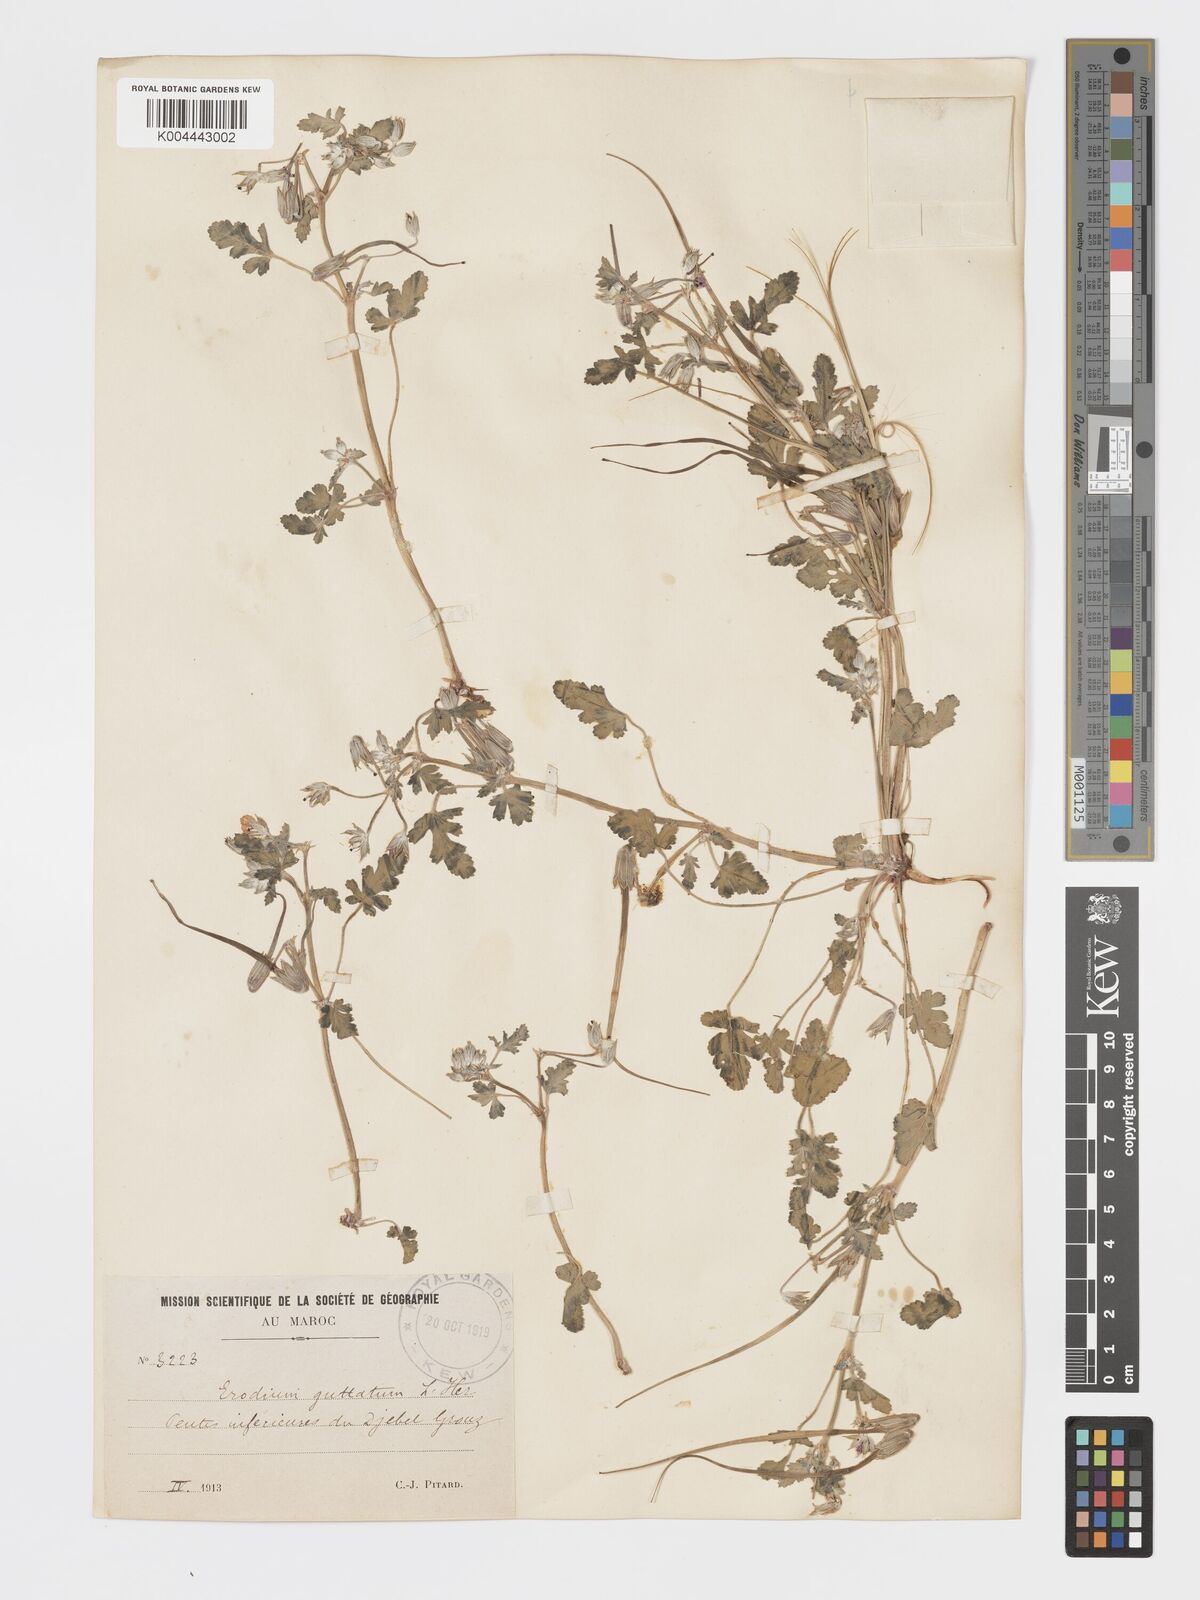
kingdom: Plantae
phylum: Tracheophyta
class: Magnoliopsida
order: Geraniales
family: Geraniaceae
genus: Erodium
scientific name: Erodium guttatum
